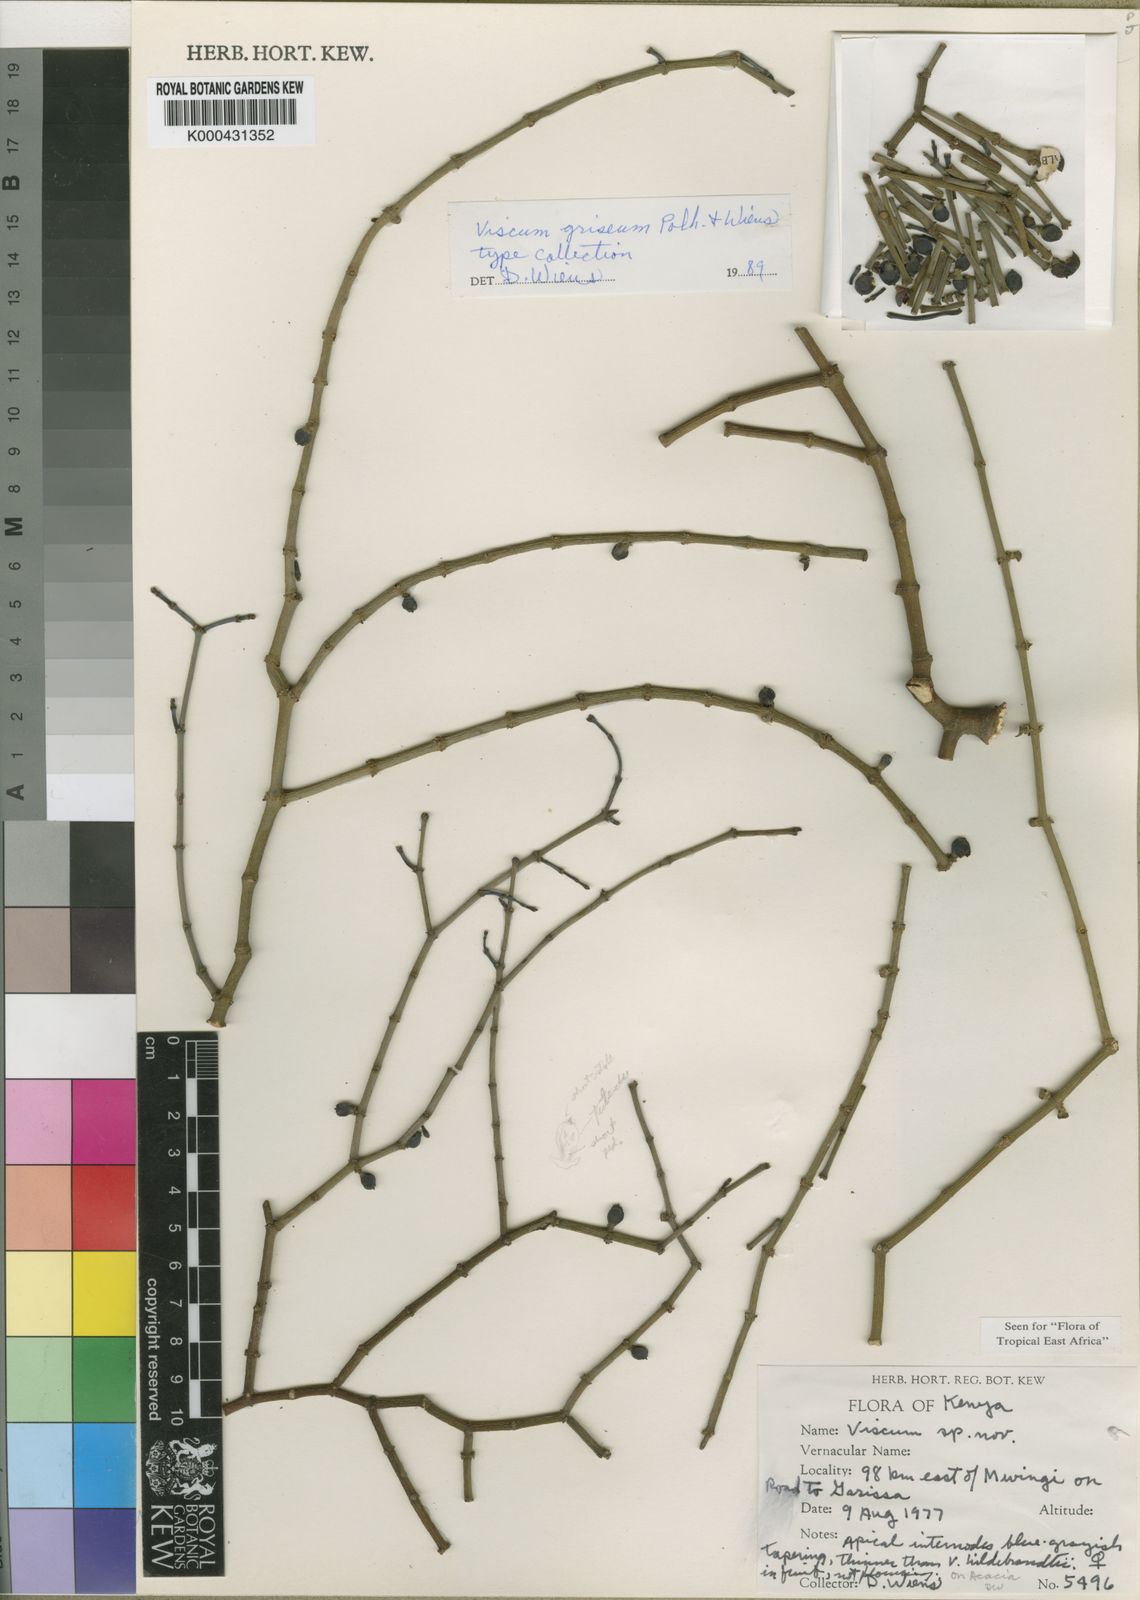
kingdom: Plantae
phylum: Tracheophyta
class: Magnoliopsida
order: Santalales
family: Viscaceae
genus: Viscum
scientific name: Viscum griseum
